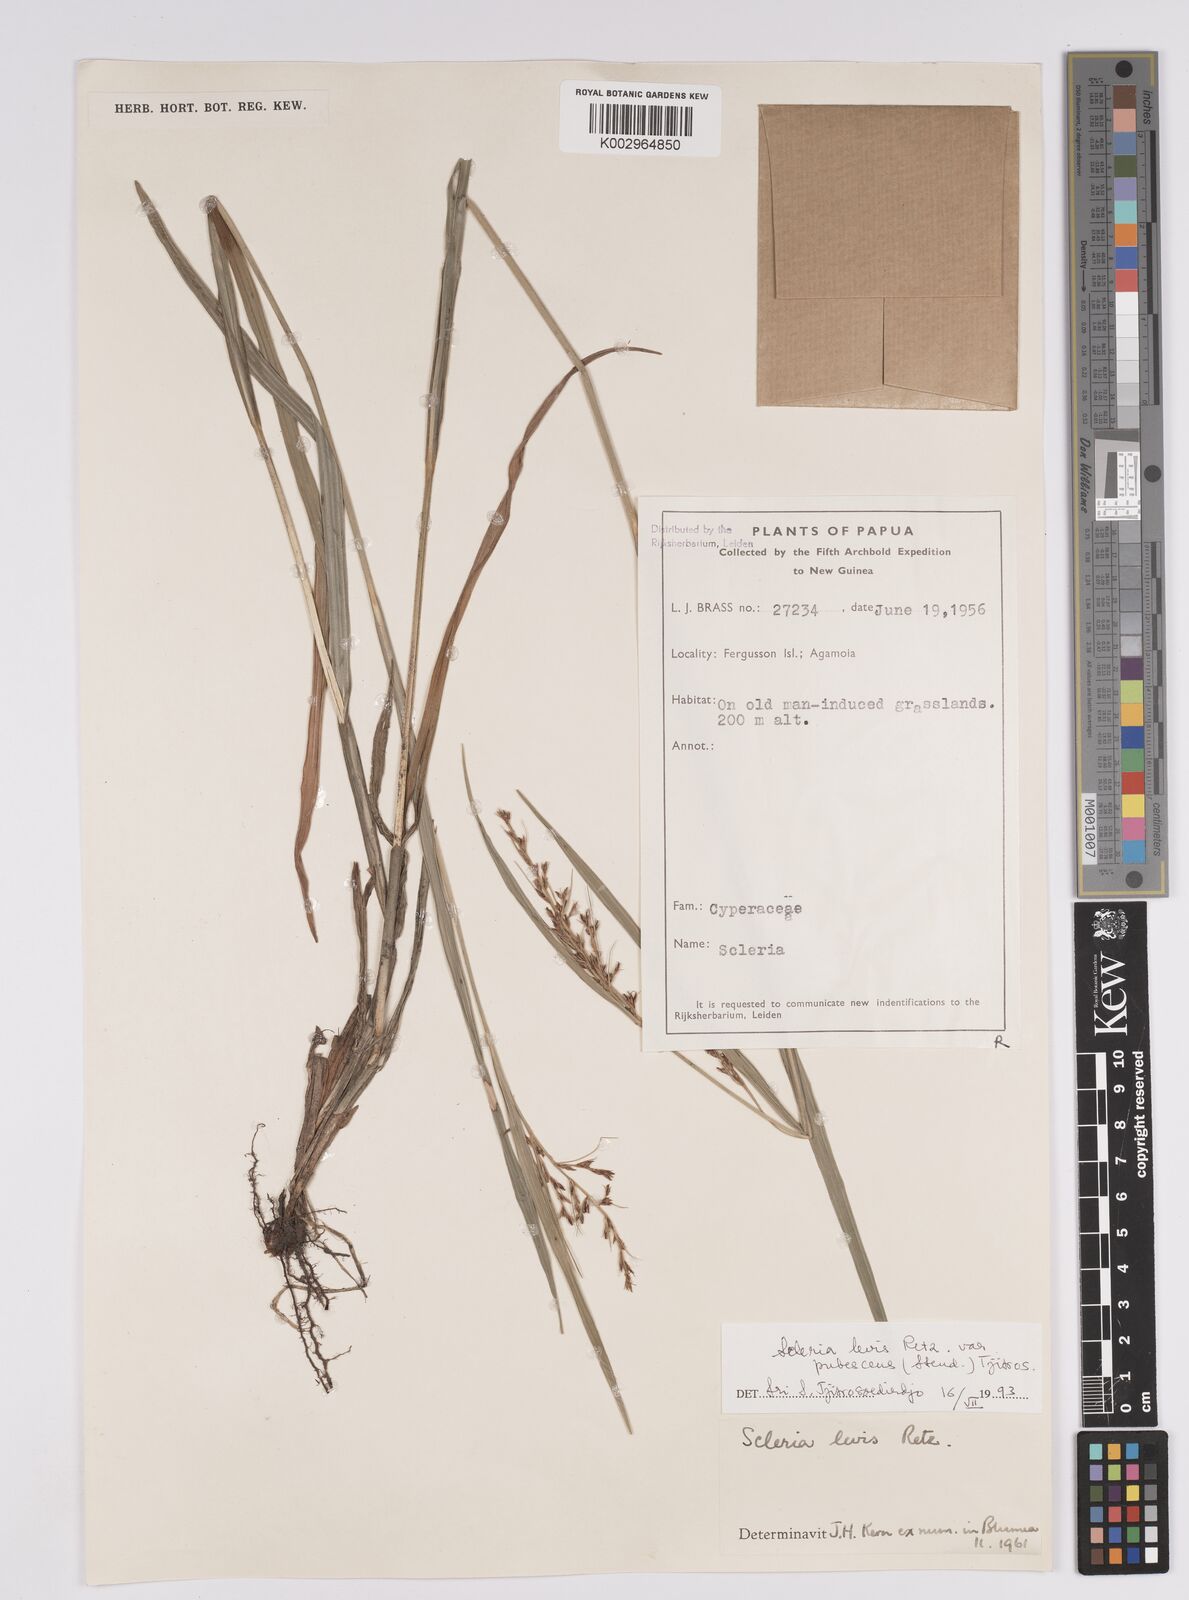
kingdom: Plantae
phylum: Tracheophyta
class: Liliopsida
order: Poales
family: Cyperaceae
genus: Scleria
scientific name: Scleria
